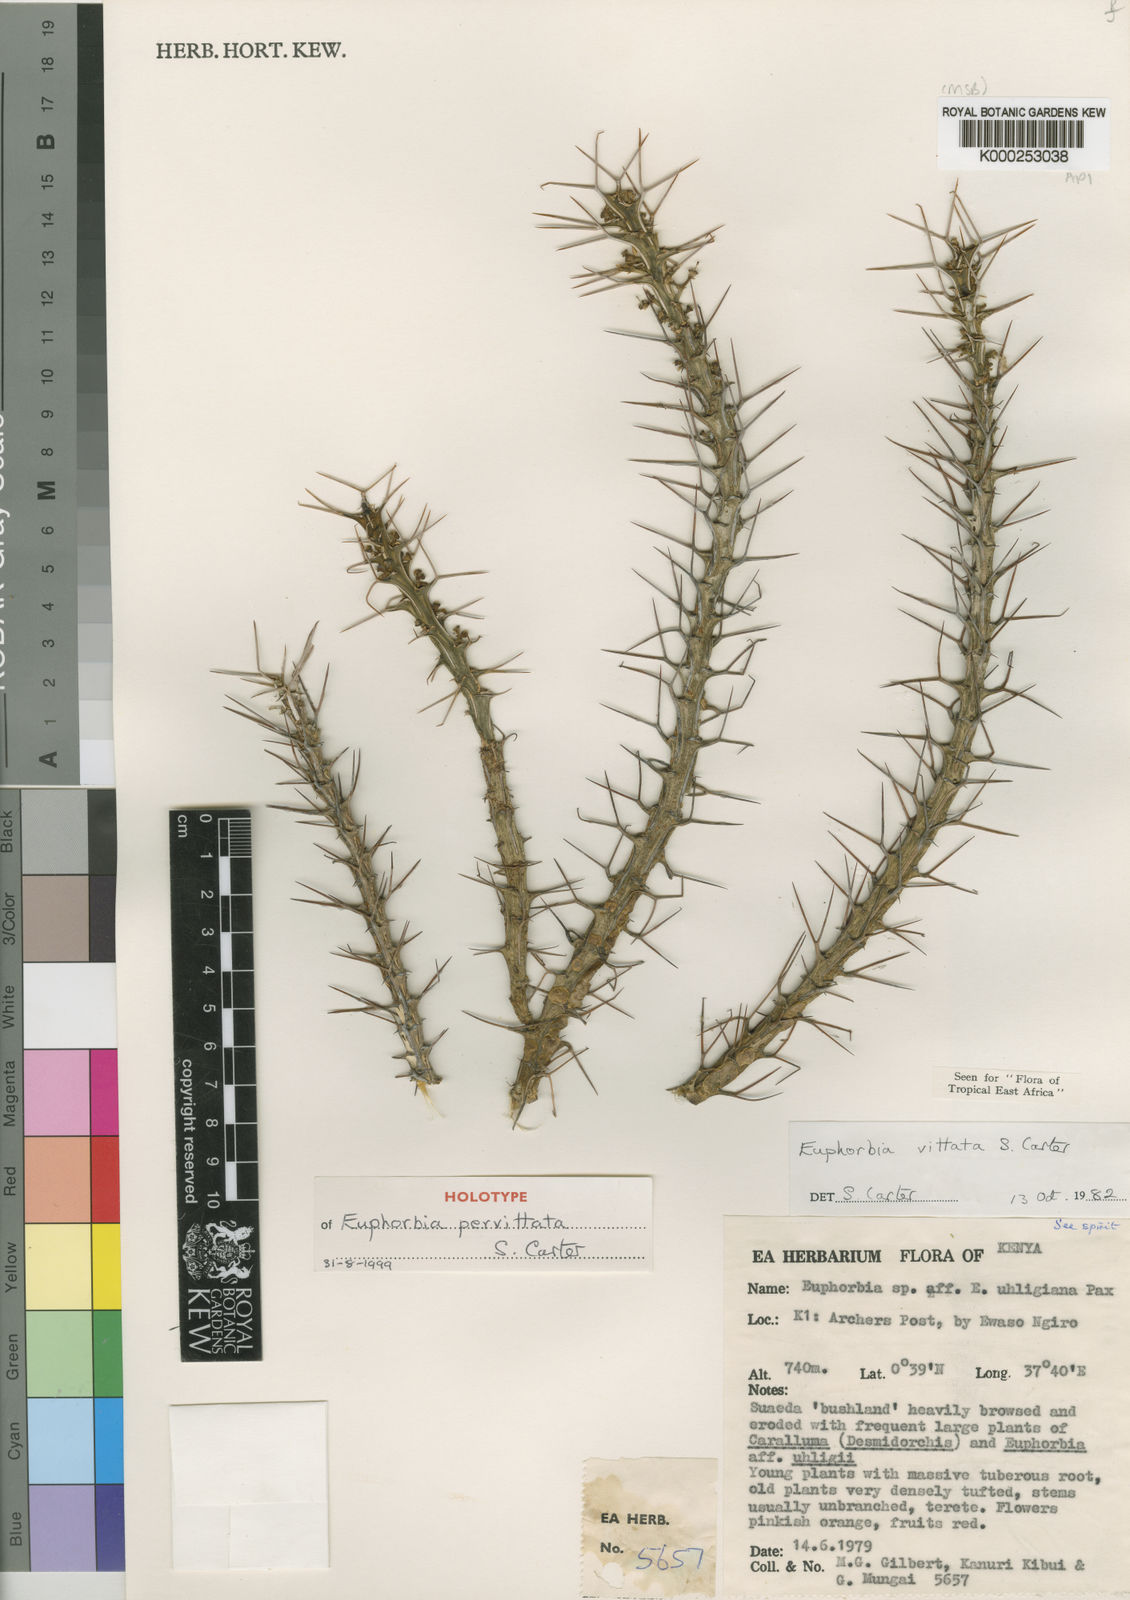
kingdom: Plantae
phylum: Tracheophyta
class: Magnoliopsida
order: Malpighiales
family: Euphorbiaceae
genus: Euphorbia
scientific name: Euphorbia pervittata
